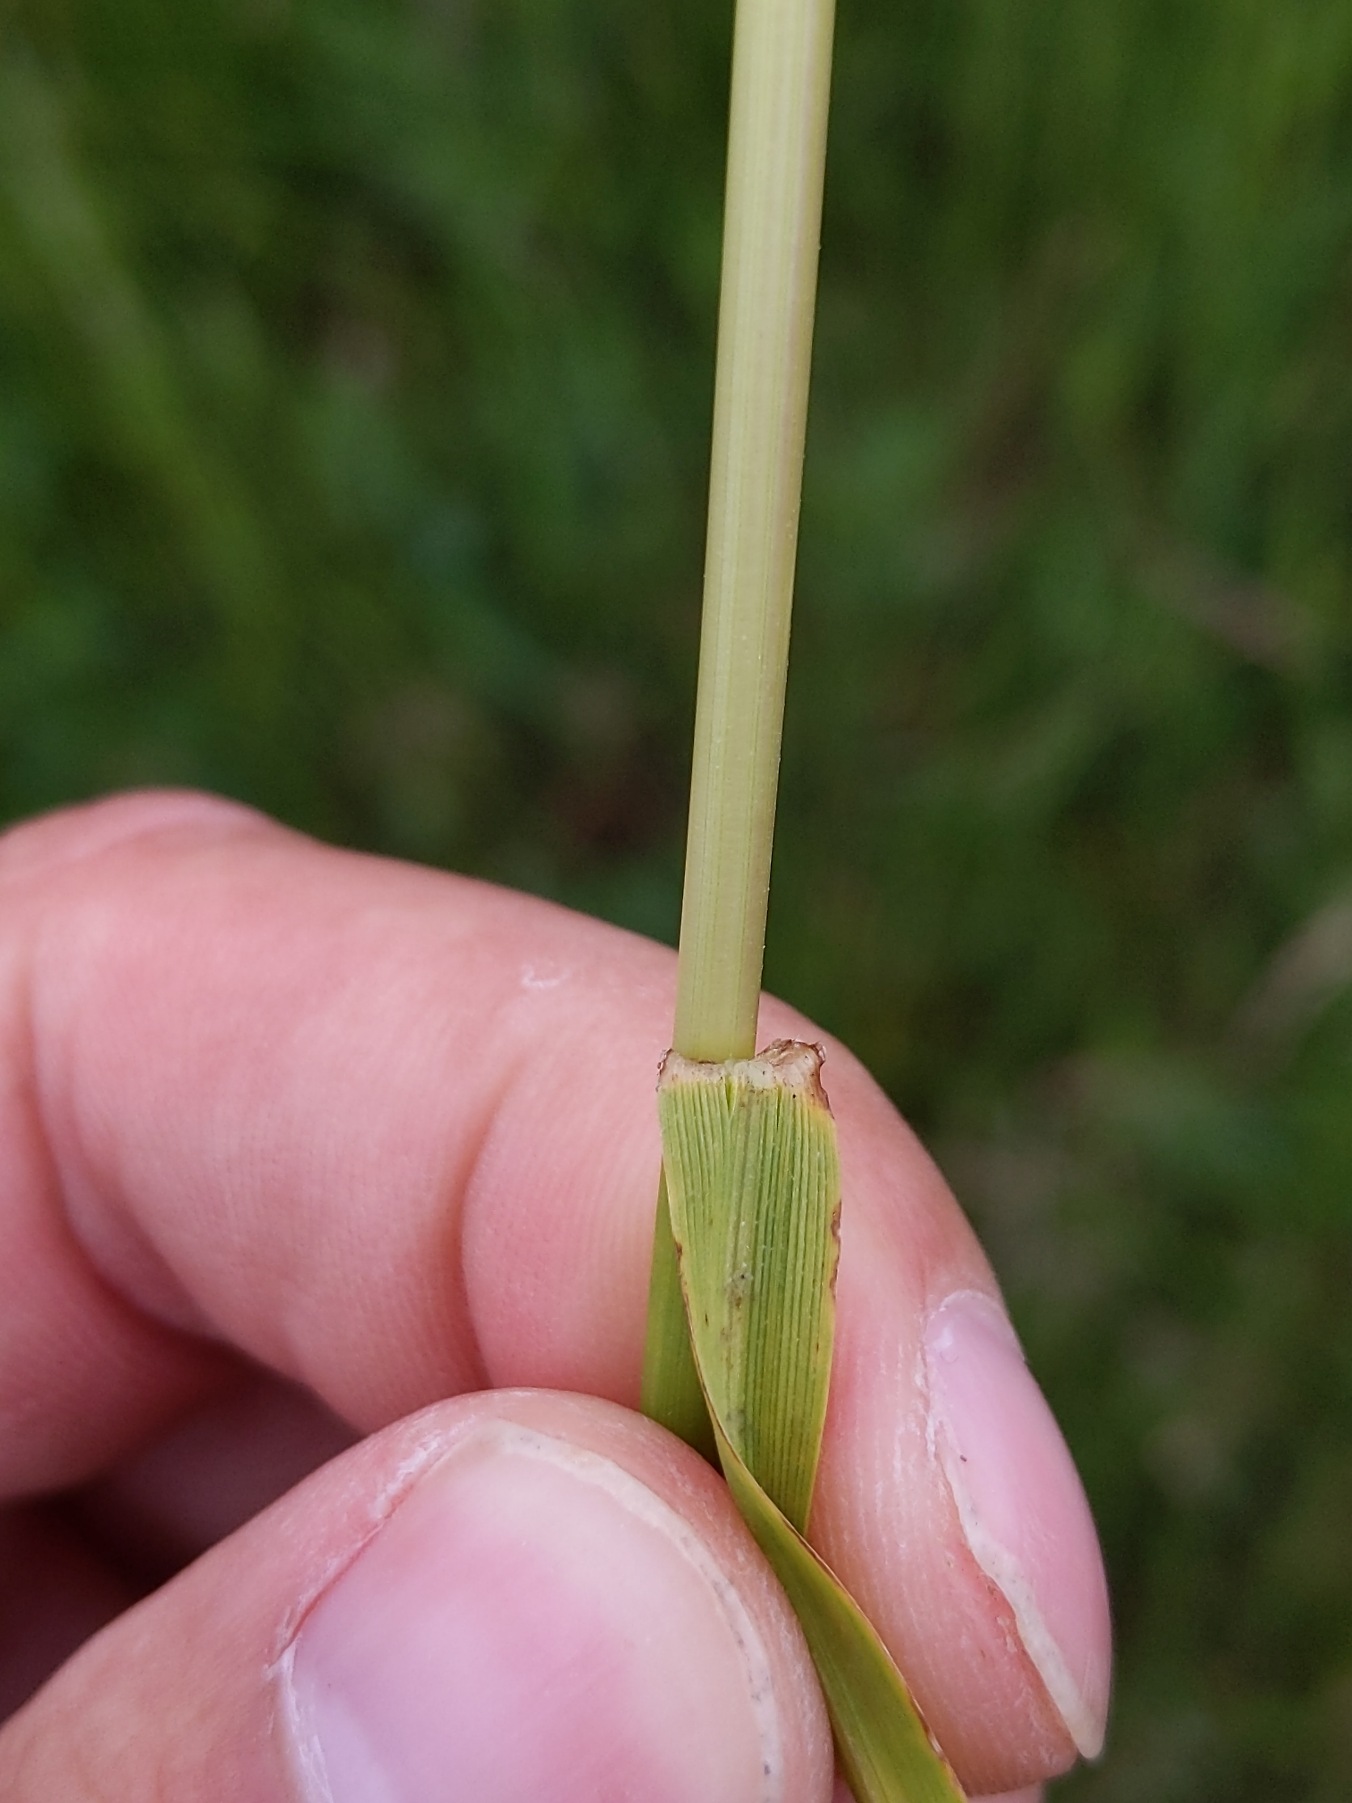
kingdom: Plantae
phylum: Tracheophyta
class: Liliopsida
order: Poales
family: Poaceae
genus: Lolium
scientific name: Lolium pratense
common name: Eng-svingel
